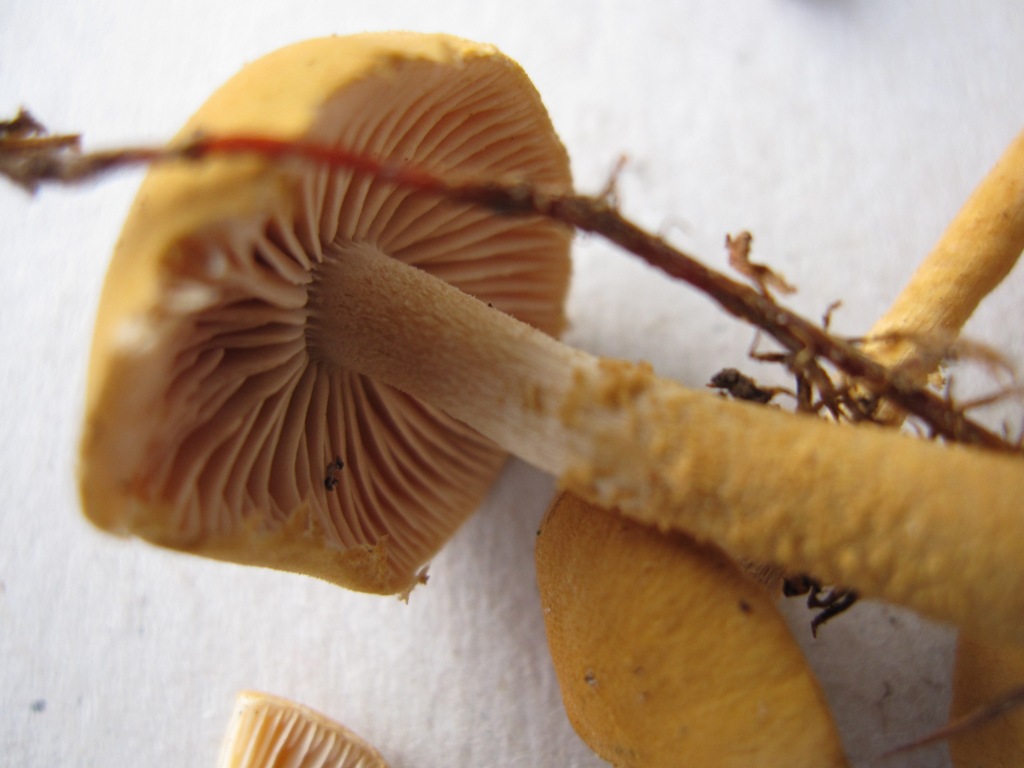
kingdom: Fungi
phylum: Basidiomycota
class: Agaricomycetes
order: Agaricales
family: Tricholomataceae
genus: Cystoderma
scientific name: Cystoderma amianthinum
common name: okkergul grynhat
